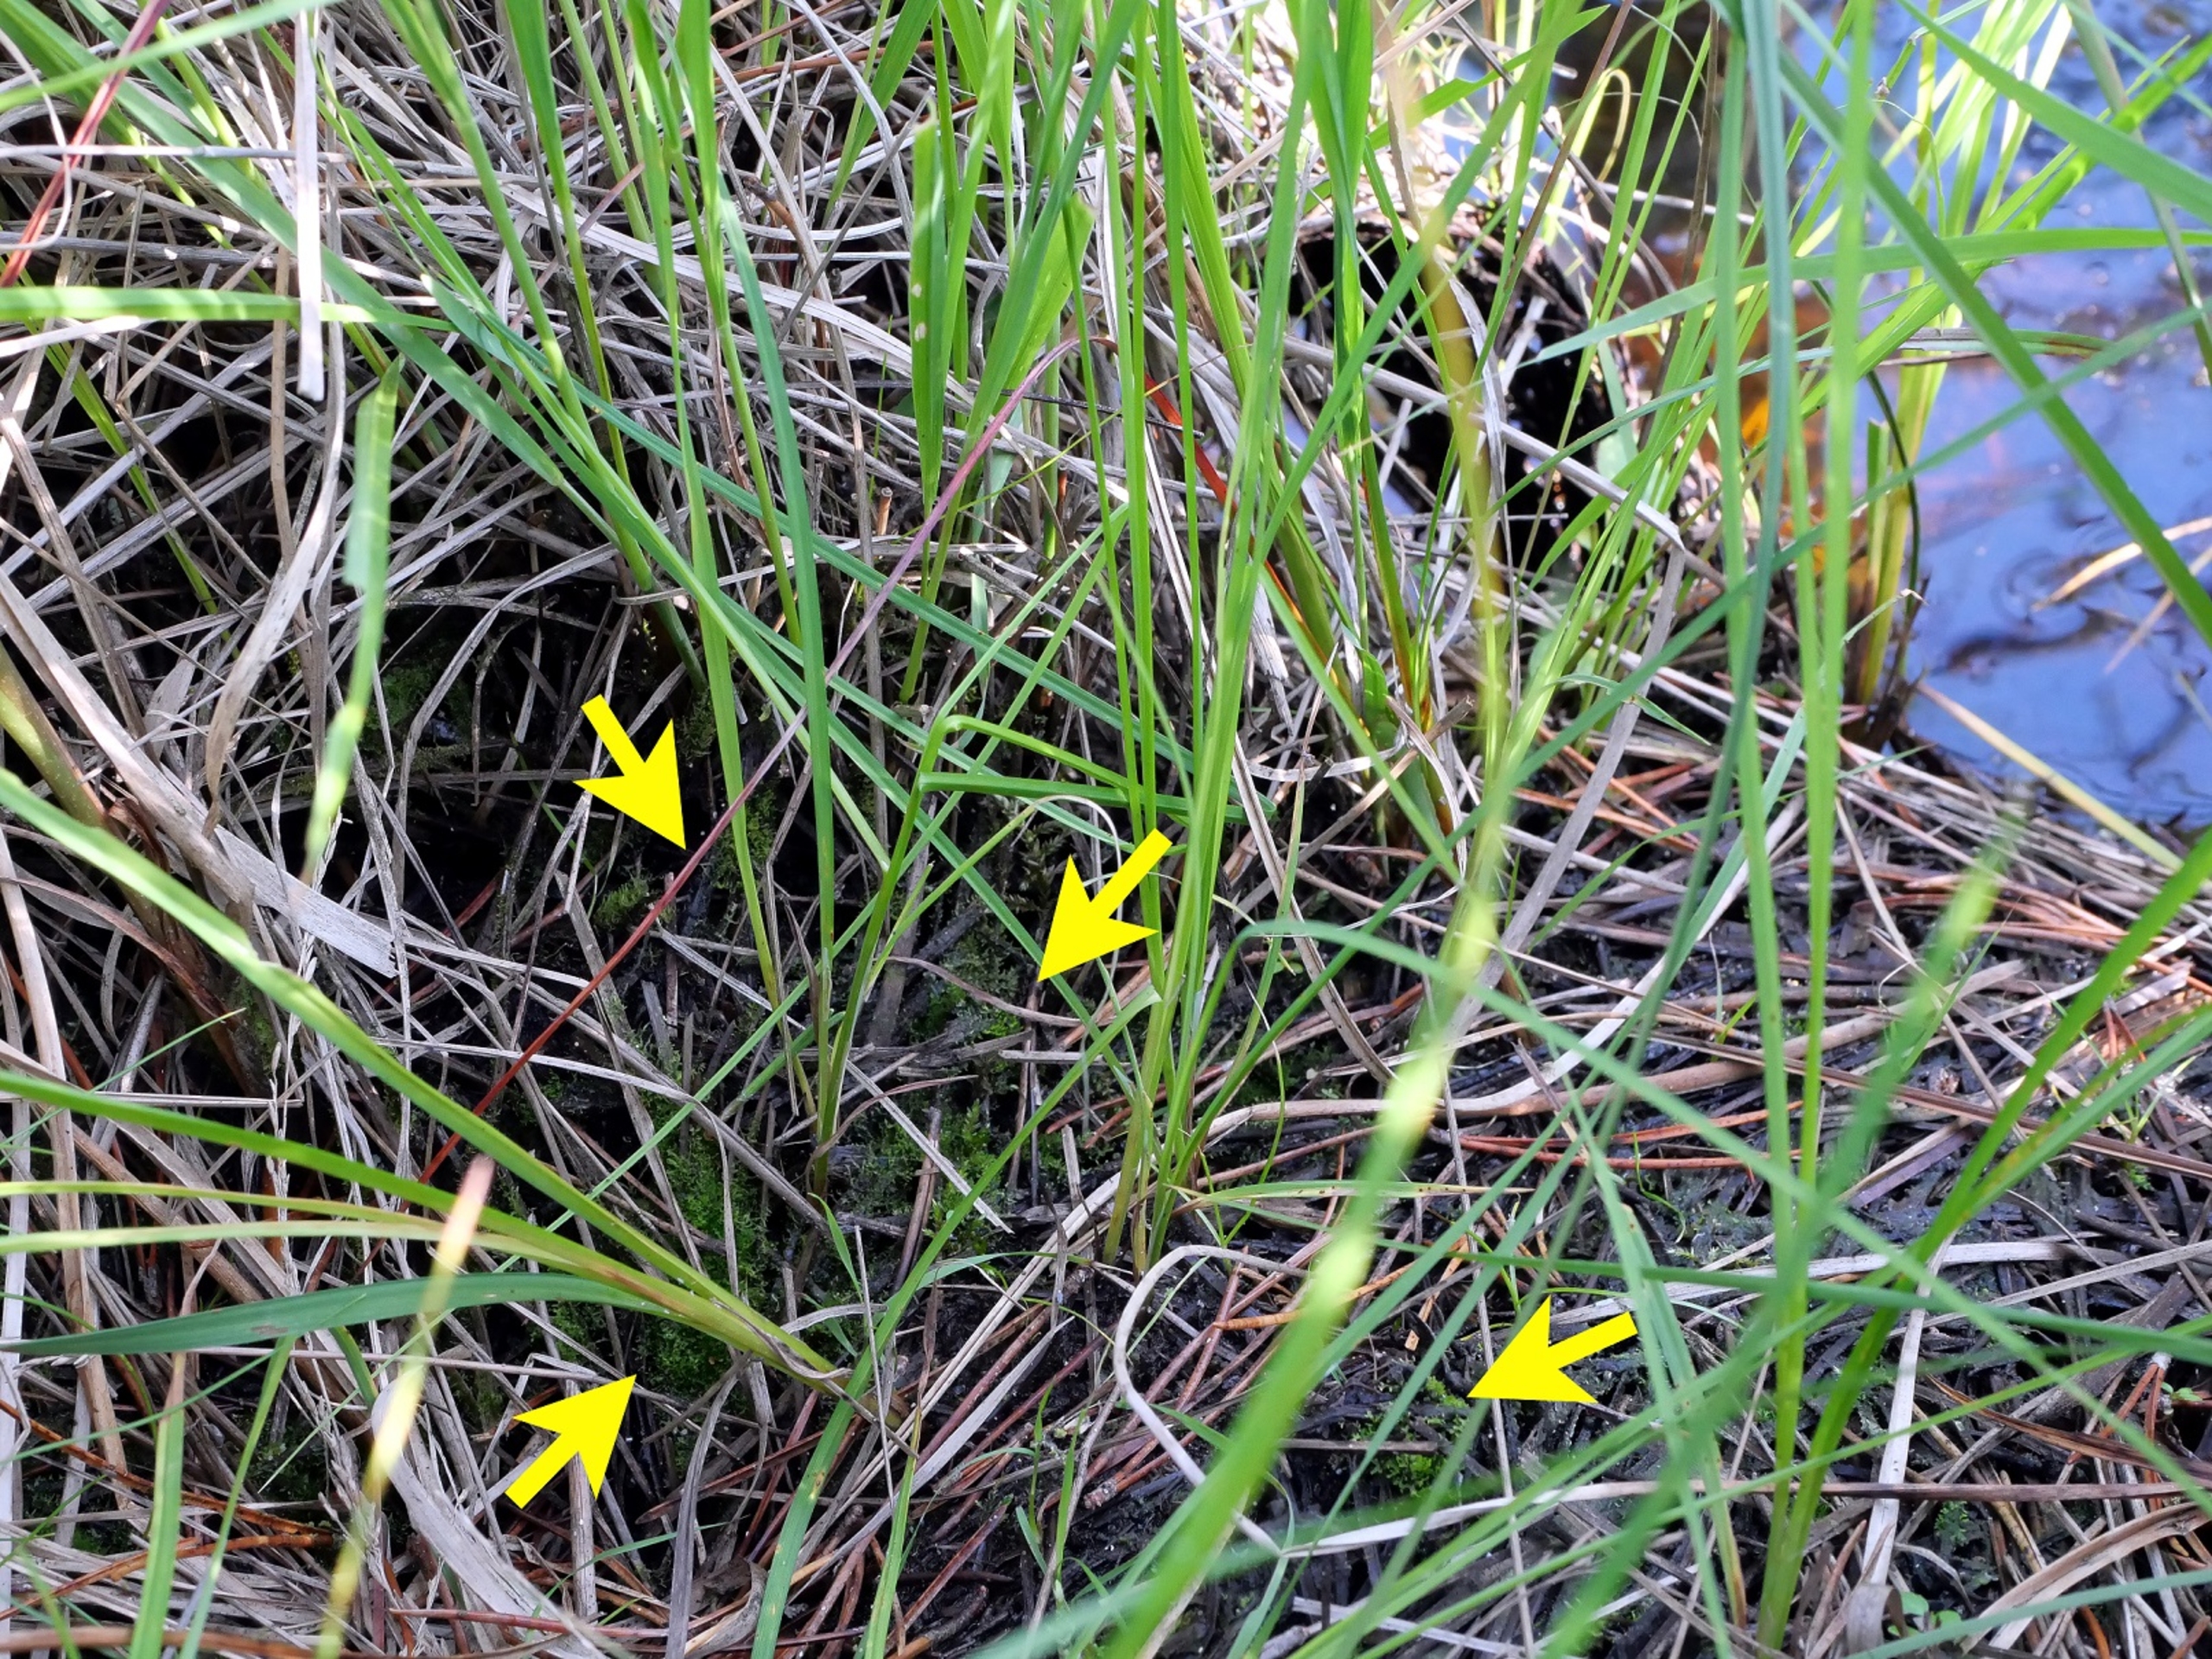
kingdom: Plantae
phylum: Marchantiophyta
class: Jungermanniopsida
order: Metzgeriales
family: Aneuraceae
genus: Riccardia
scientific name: Riccardia palmata
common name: Ved-ribbeløs
